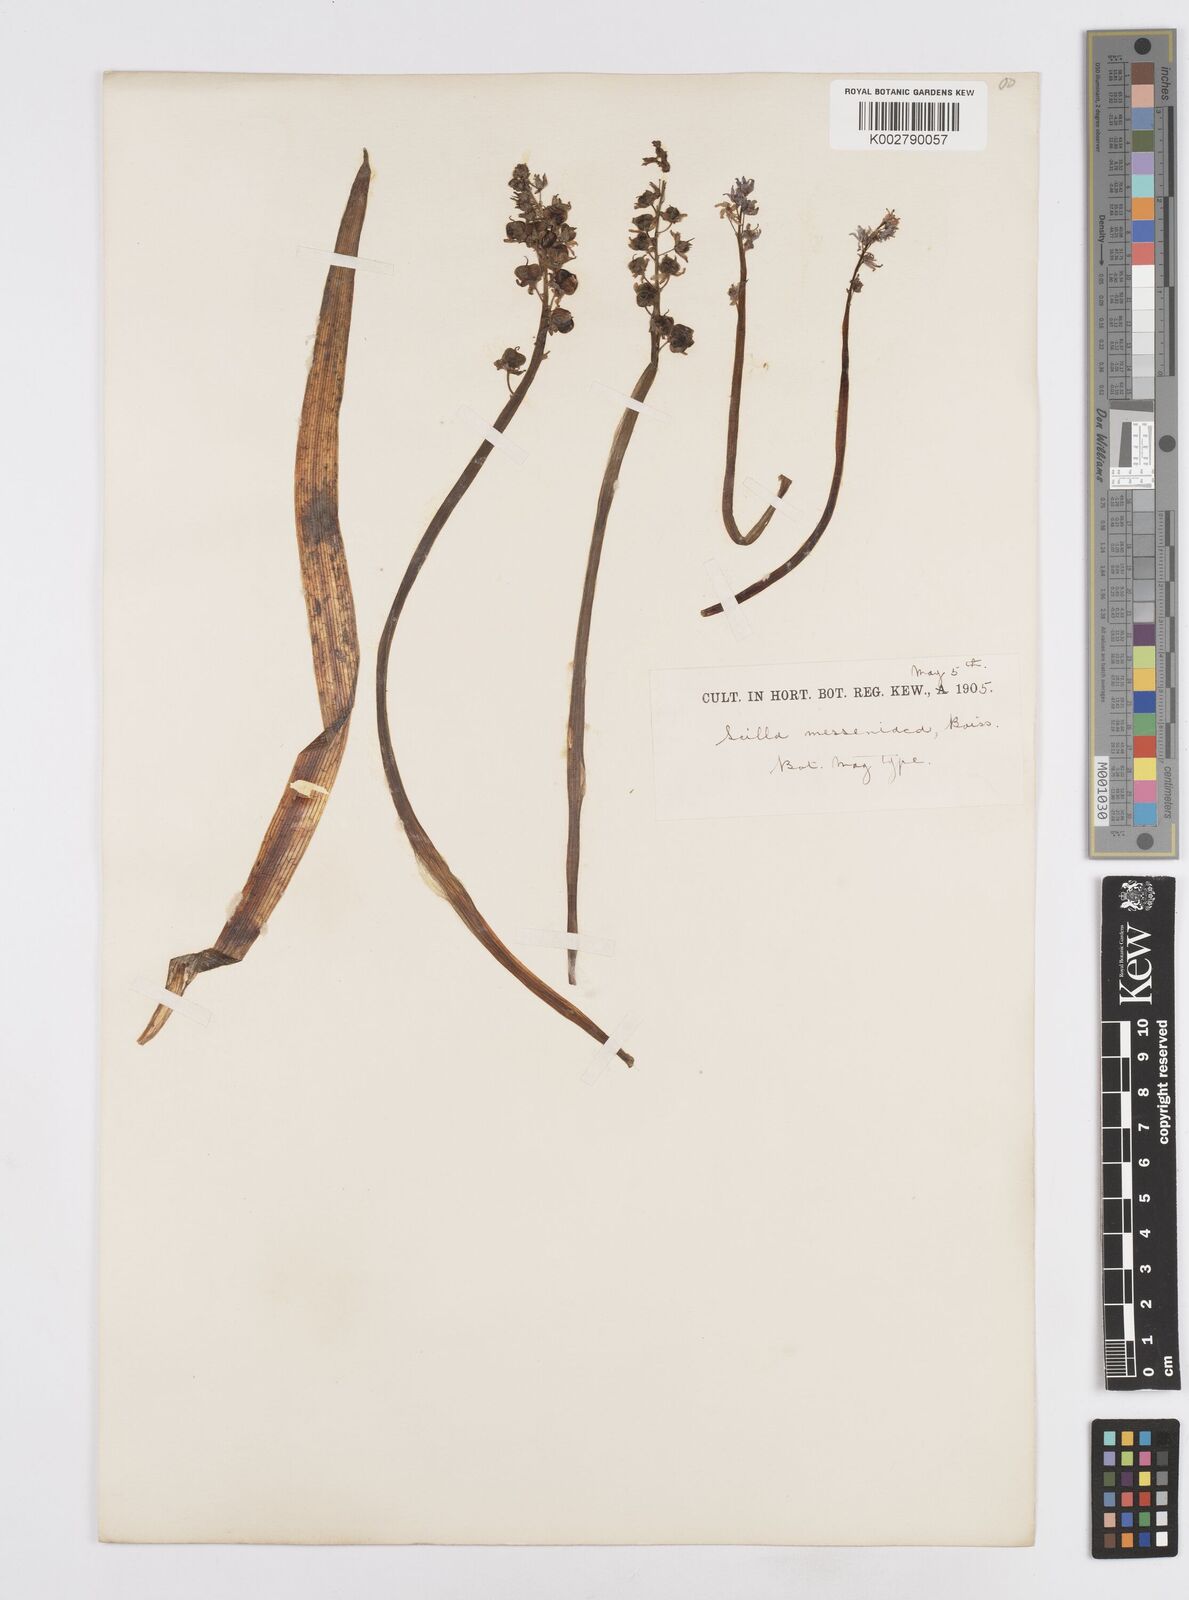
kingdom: Plantae
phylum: Tracheophyta
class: Liliopsida
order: Asparagales
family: Asparagaceae
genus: Scilla
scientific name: Scilla messeniaca
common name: Greek squill
